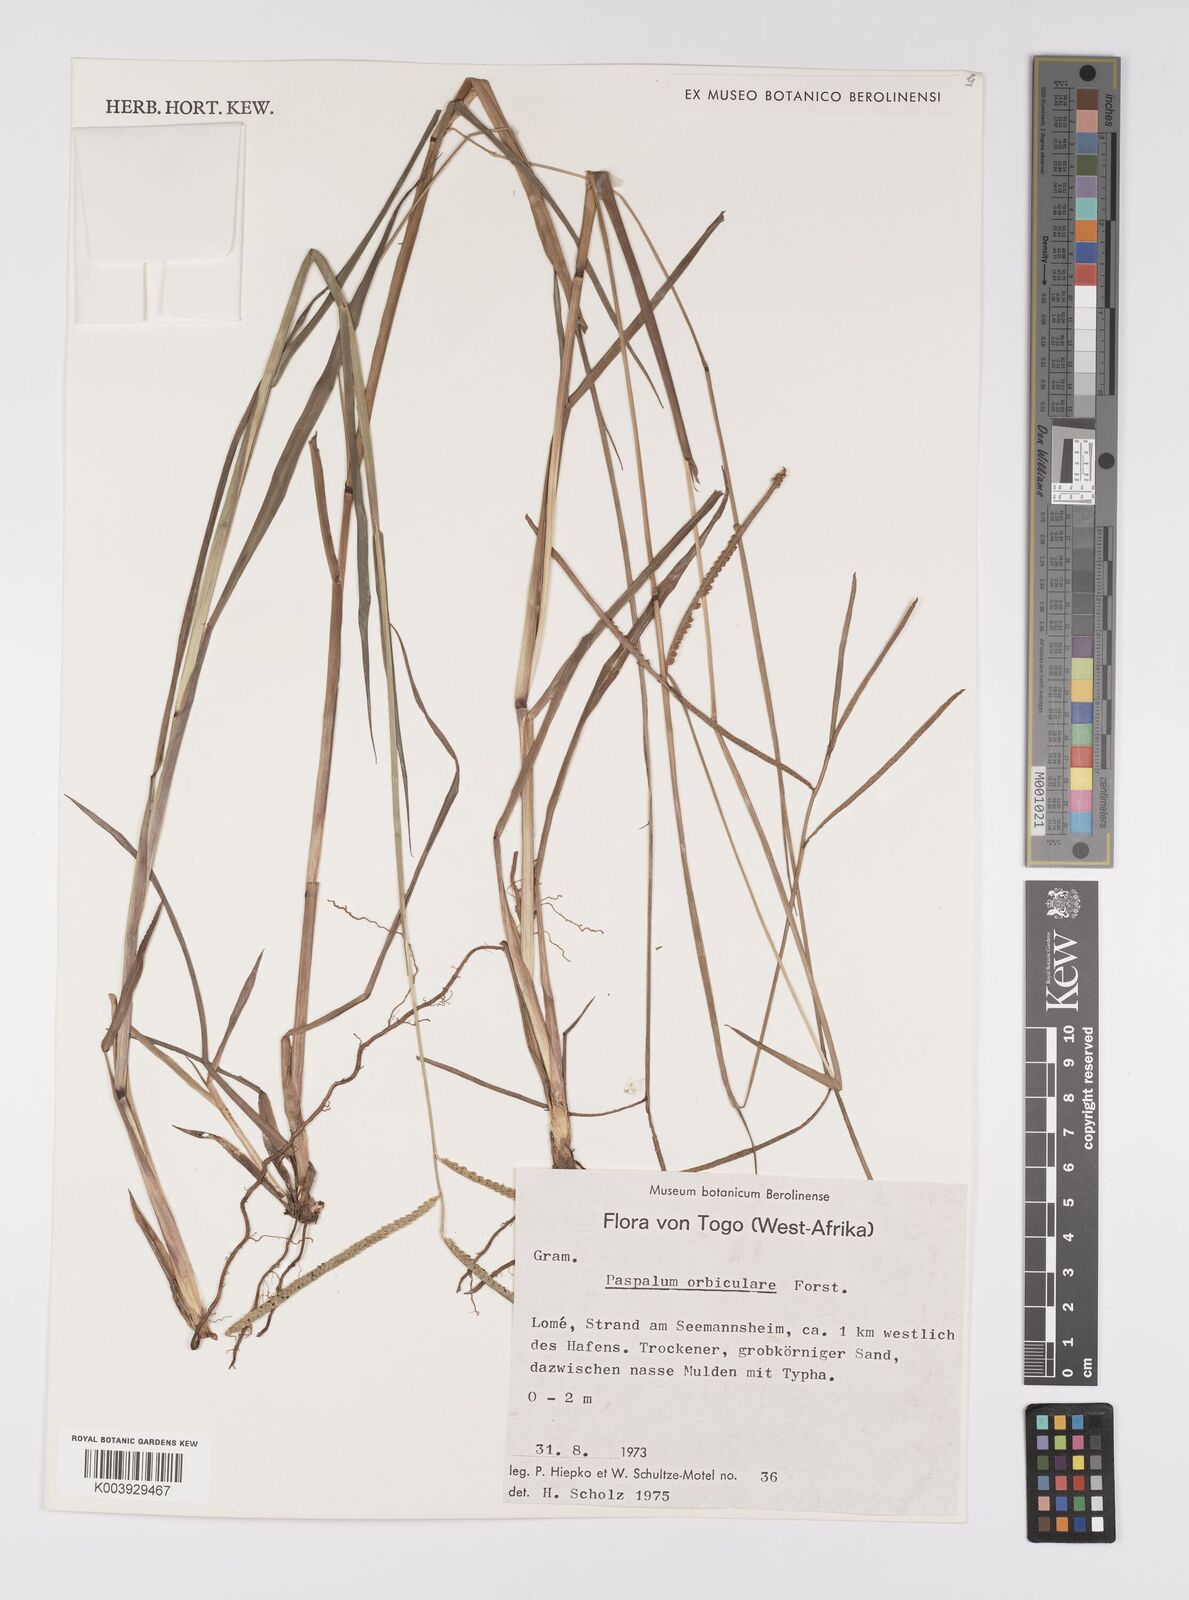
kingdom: Plantae
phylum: Tracheophyta
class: Liliopsida
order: Poales
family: Poaceae
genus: Paspalum
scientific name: Paspalum scrobiculatum
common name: Kodo millet
